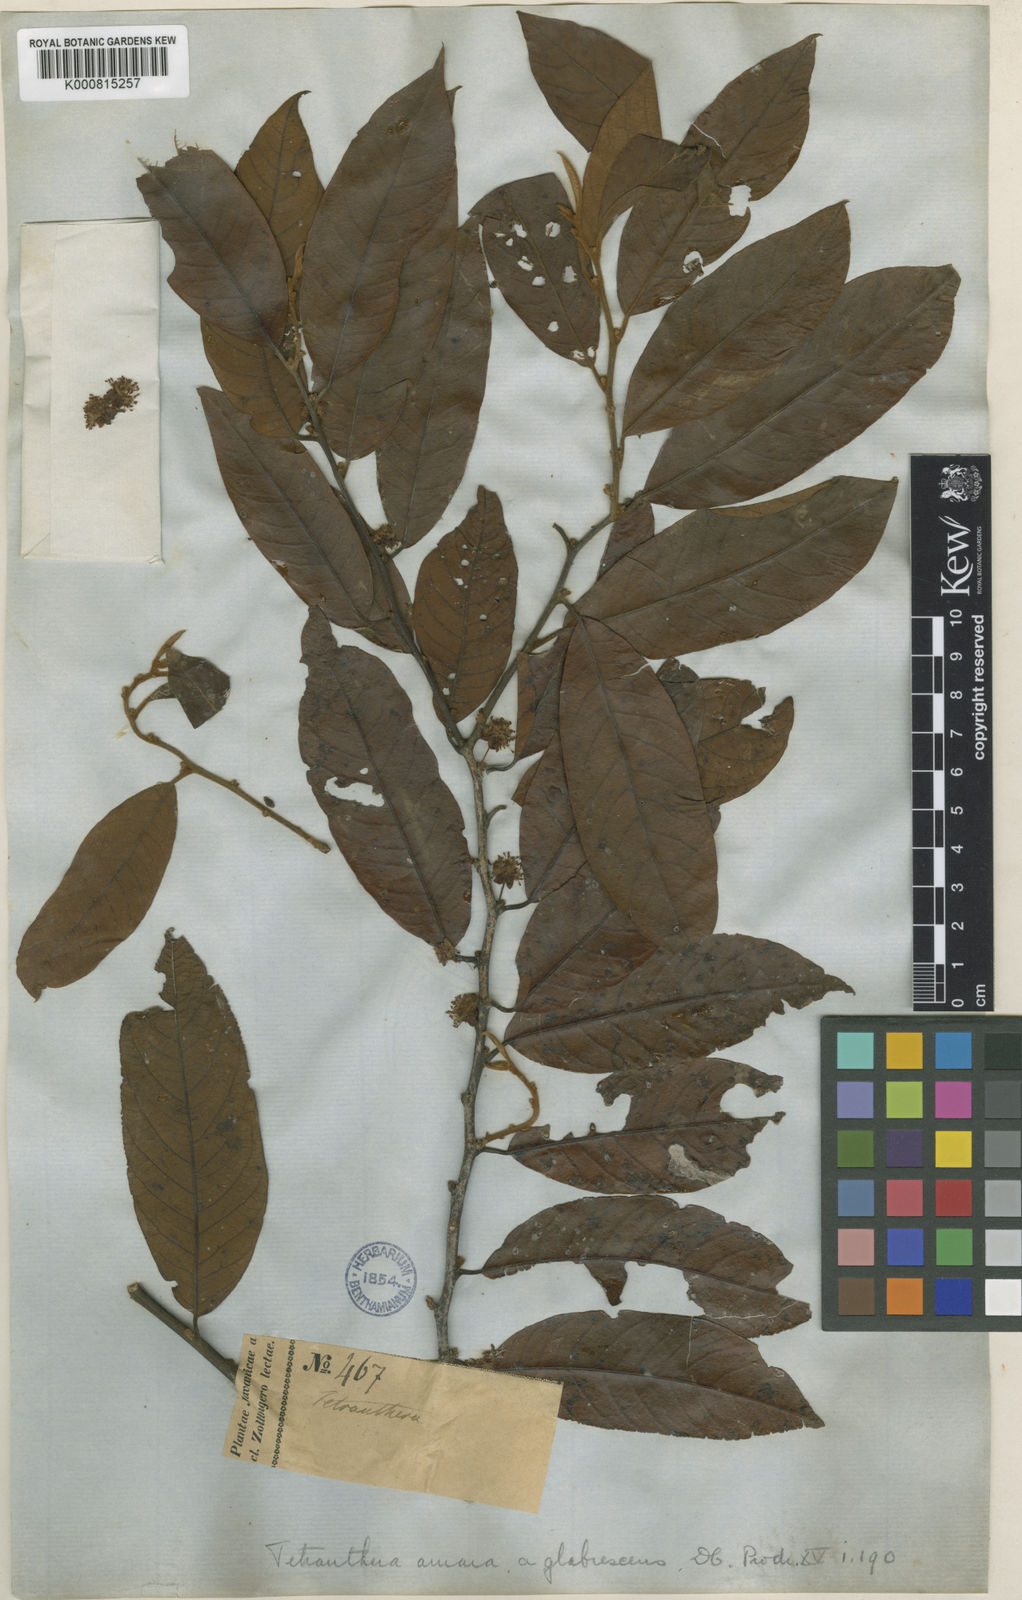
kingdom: Plantae
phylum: Tracheophyta
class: Magnoliopsida
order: Laurales
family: Lauraceae
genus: Litsea
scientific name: Litsea umbellata
